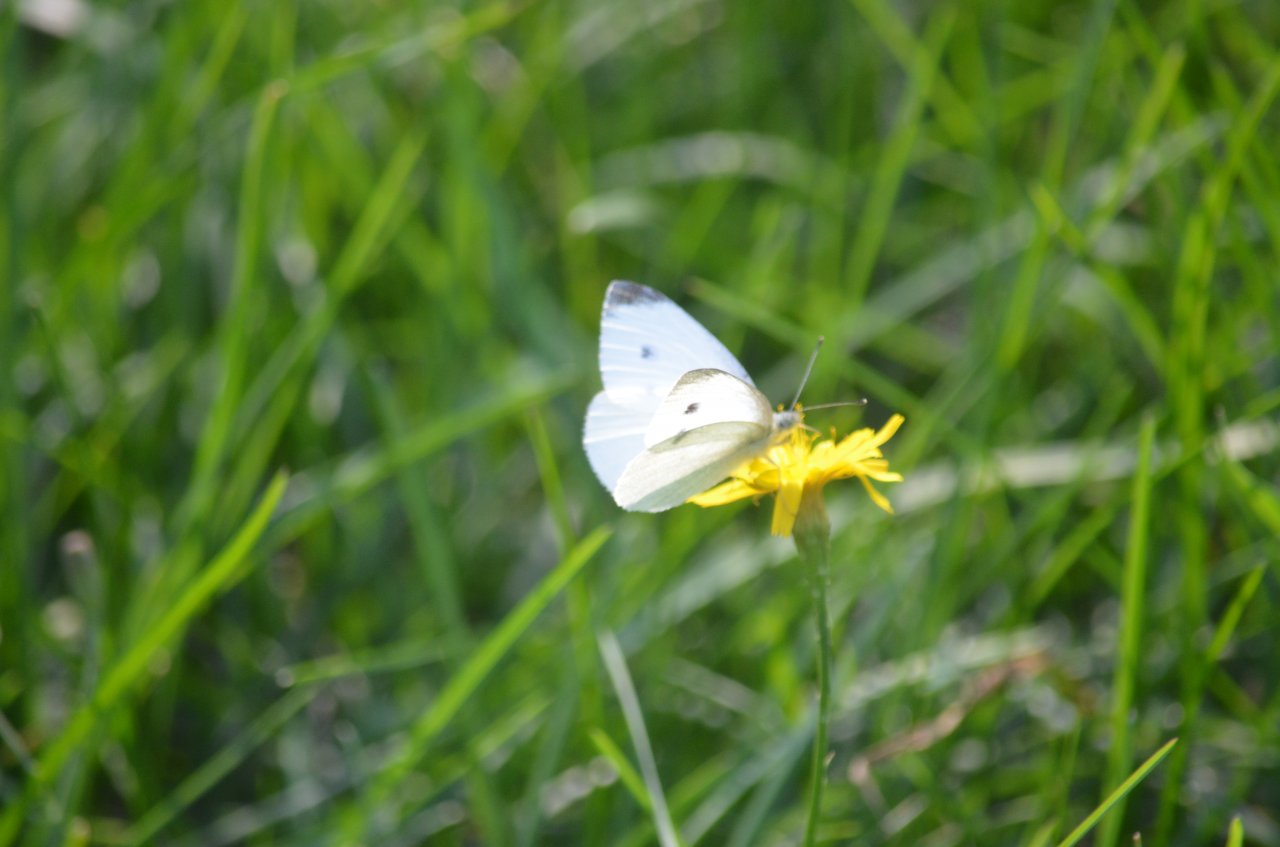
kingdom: Animalia
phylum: Arthropoda
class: Insecta
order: Lepidoptera
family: Pieridae
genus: Pieris
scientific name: Pieris rapae
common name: Cabbage White
